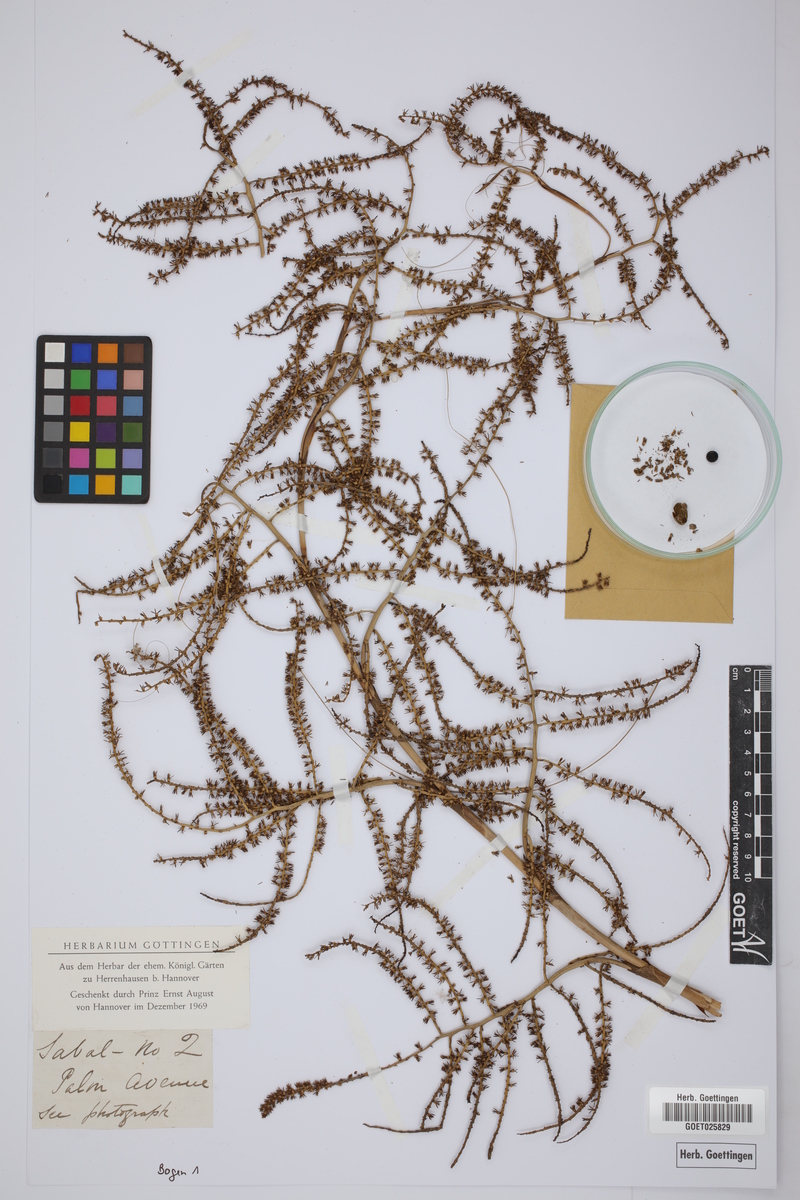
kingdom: Plantae
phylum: Tracheophyta
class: Liliopsida
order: Arecales
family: Arecaceae
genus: Sabal
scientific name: Sabal
